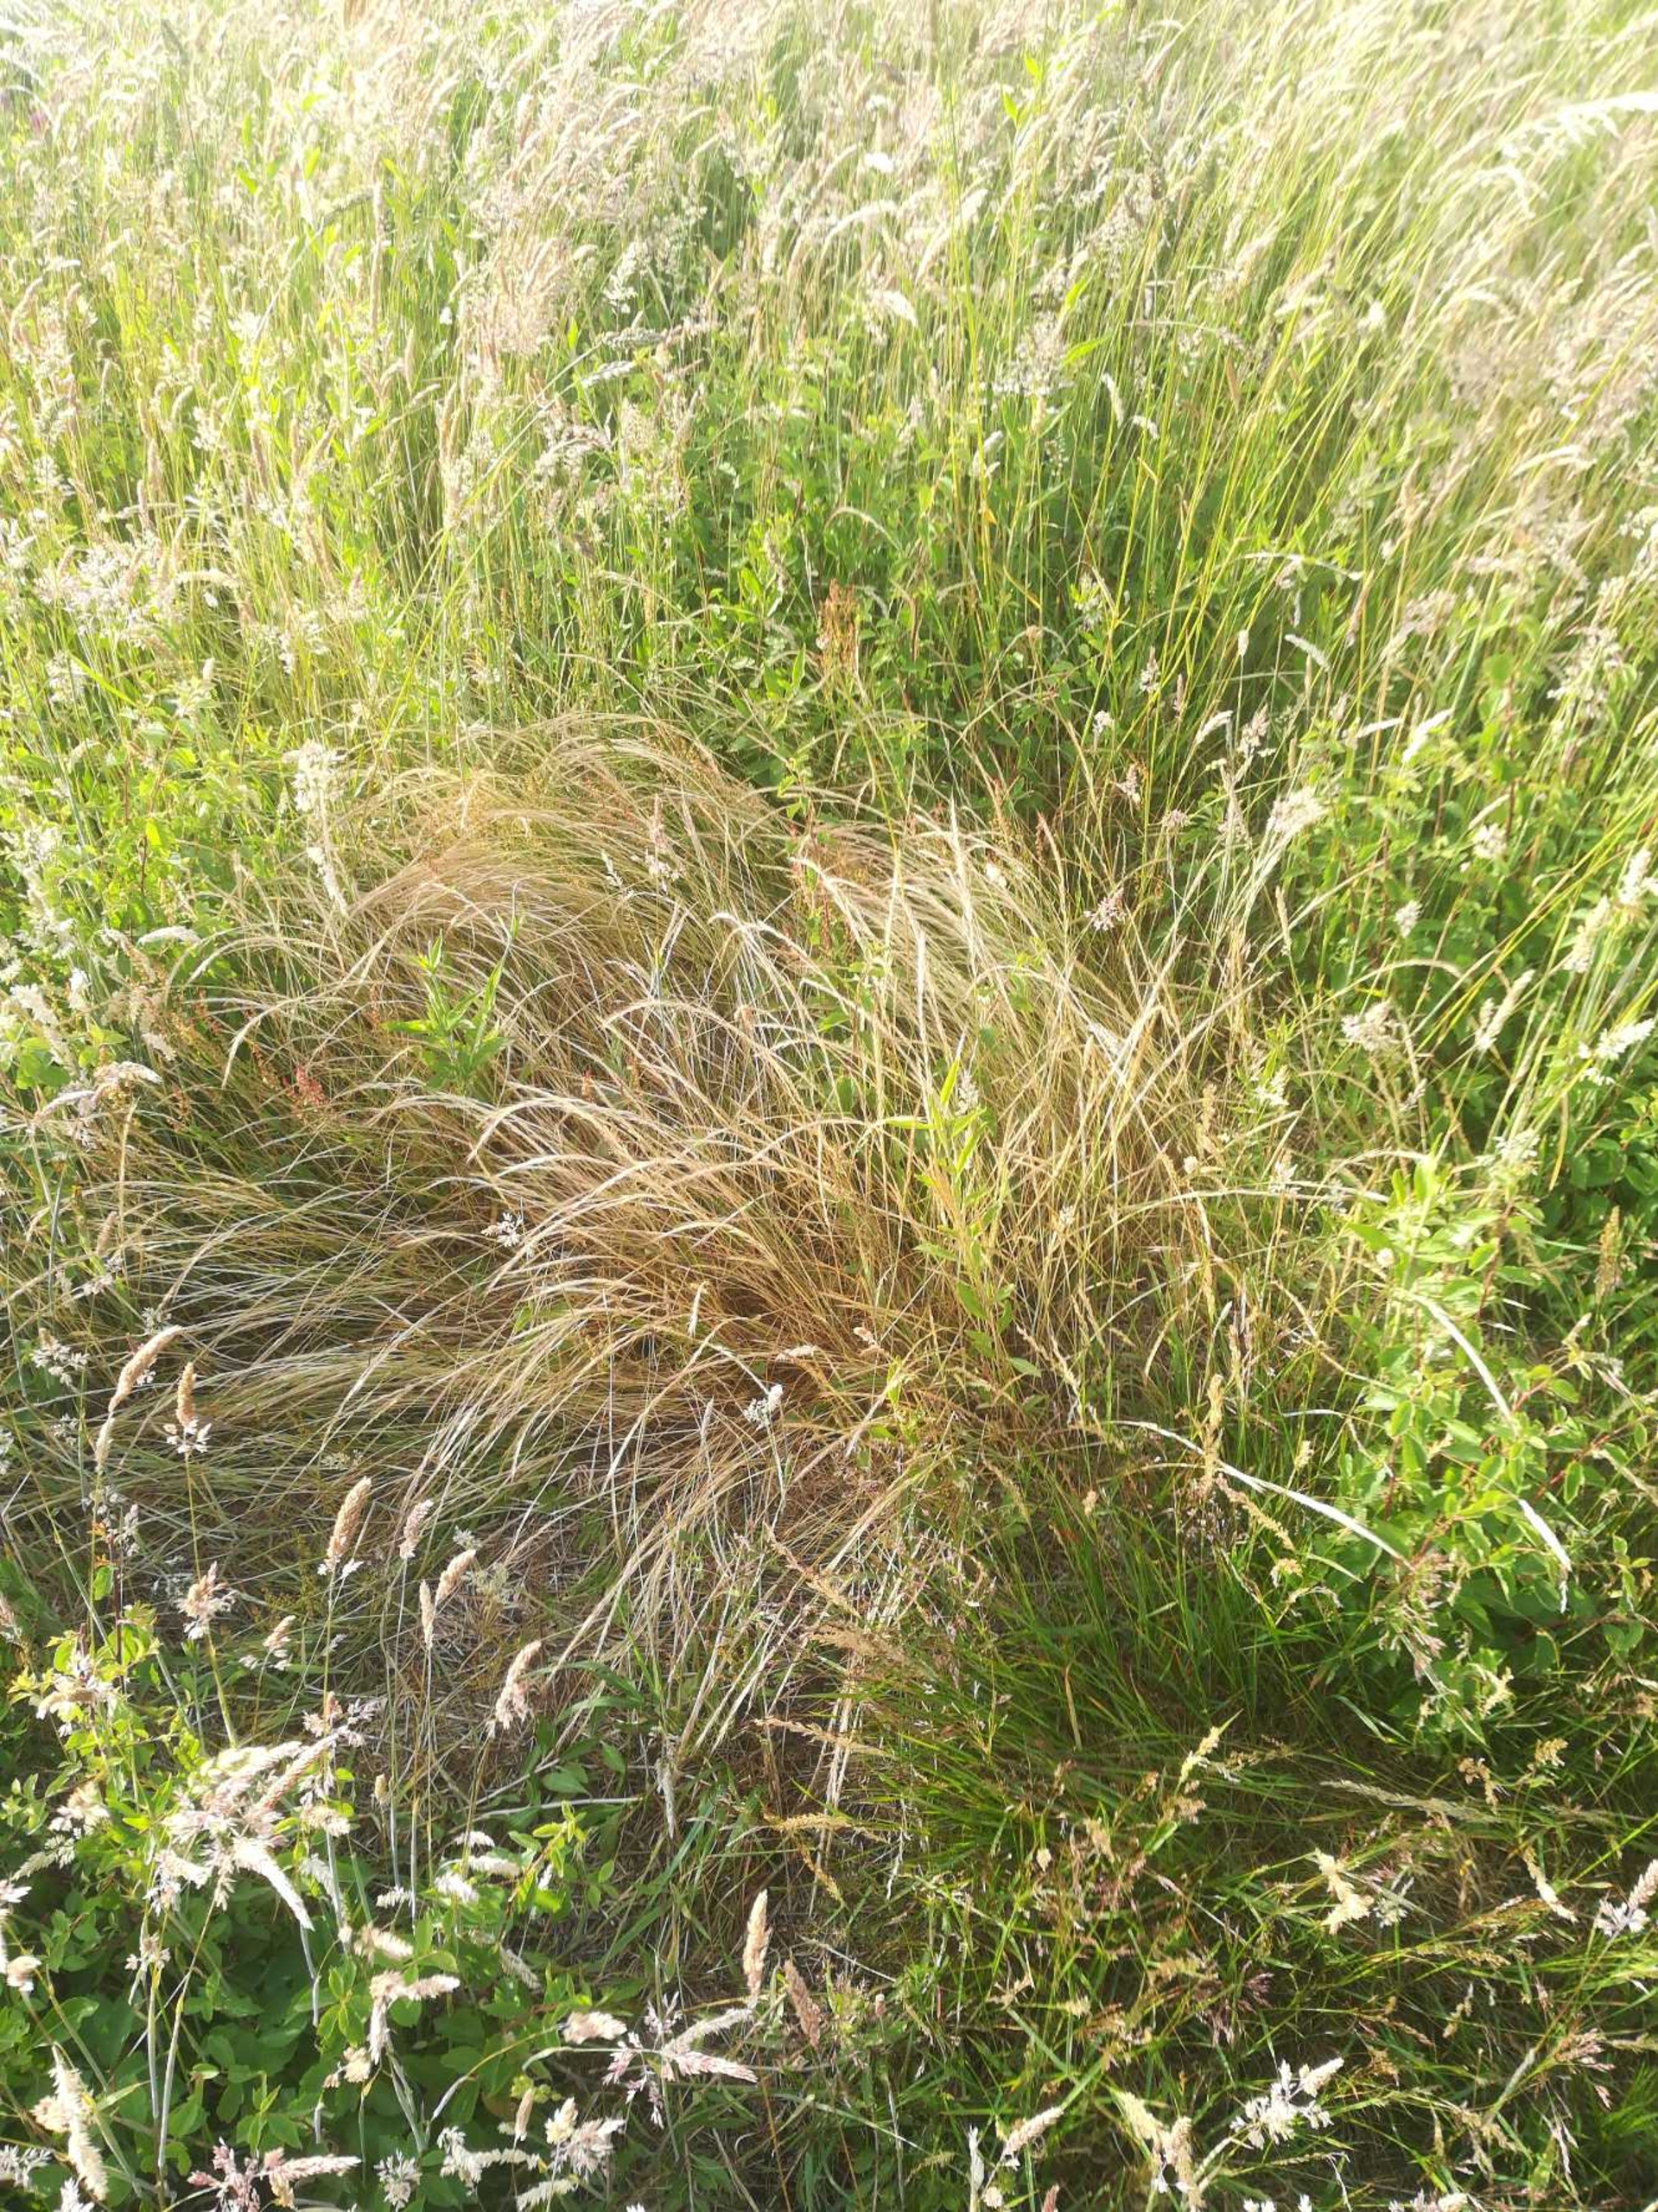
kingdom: Plantae
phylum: Tracheophyta
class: Liliopsida
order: Poales
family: Poaceae
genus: Festuca
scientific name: Festuca myuros
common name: Stor væselhale
